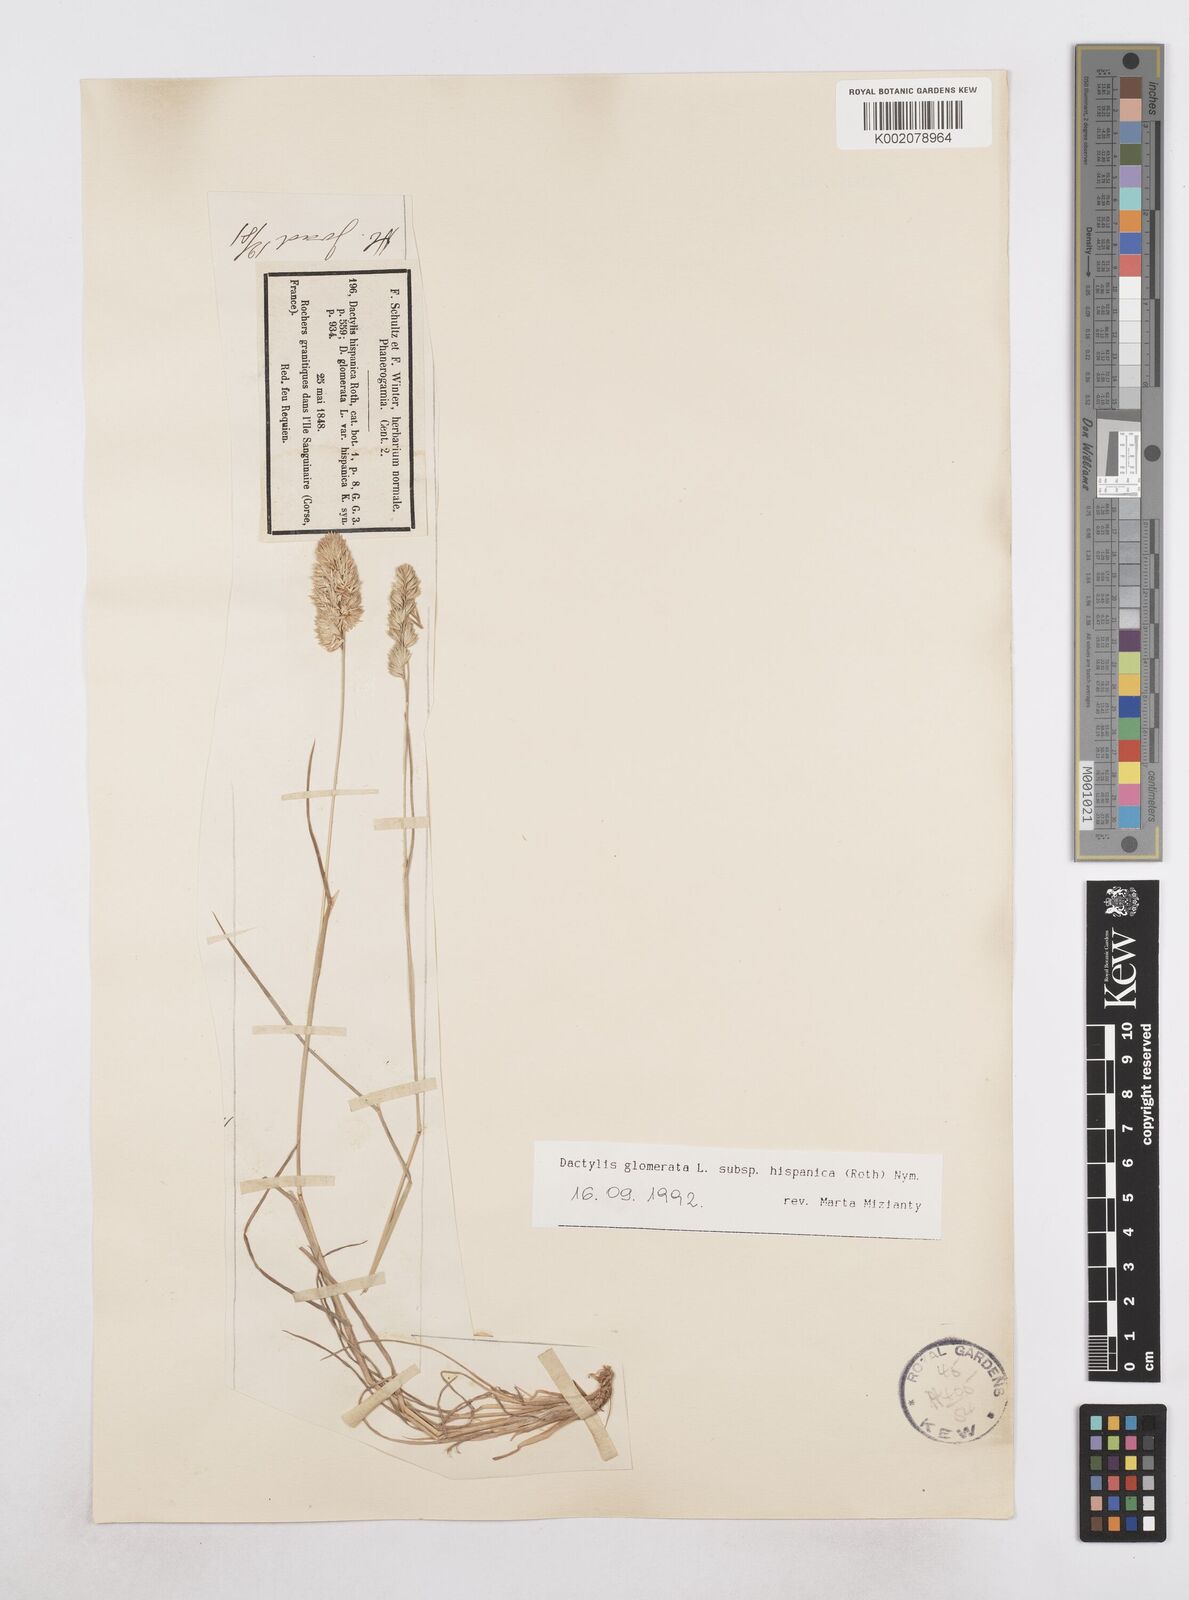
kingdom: Plantae
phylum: Tracheophyta
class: Liliopsida
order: Poales
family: Poaceae
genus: Dactylis
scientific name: Dactylis glomerata
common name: Orchardgrass
